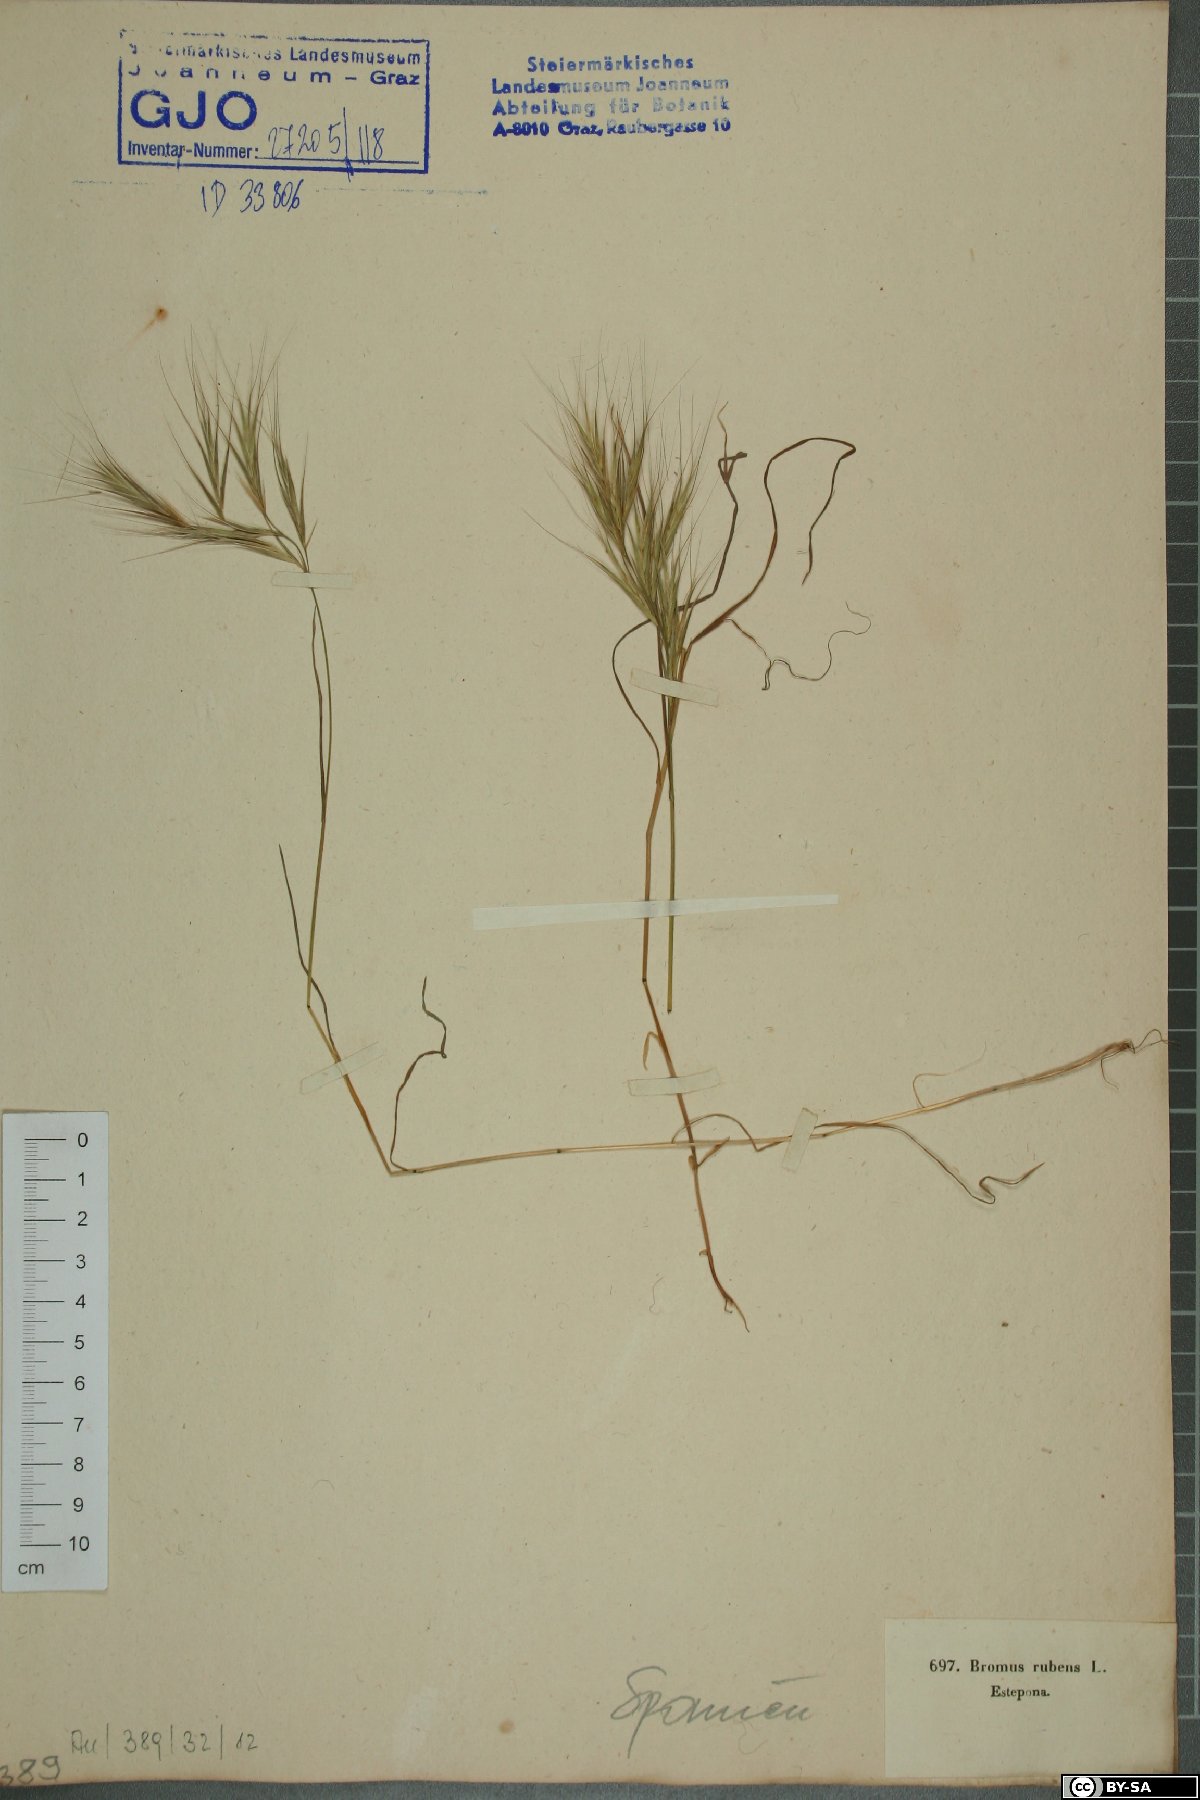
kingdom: Plantae
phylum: Tracheophyta
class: Liliopsida
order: Poales
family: Poaceae
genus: Bromus
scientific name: Bromus rubens
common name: Red brome
